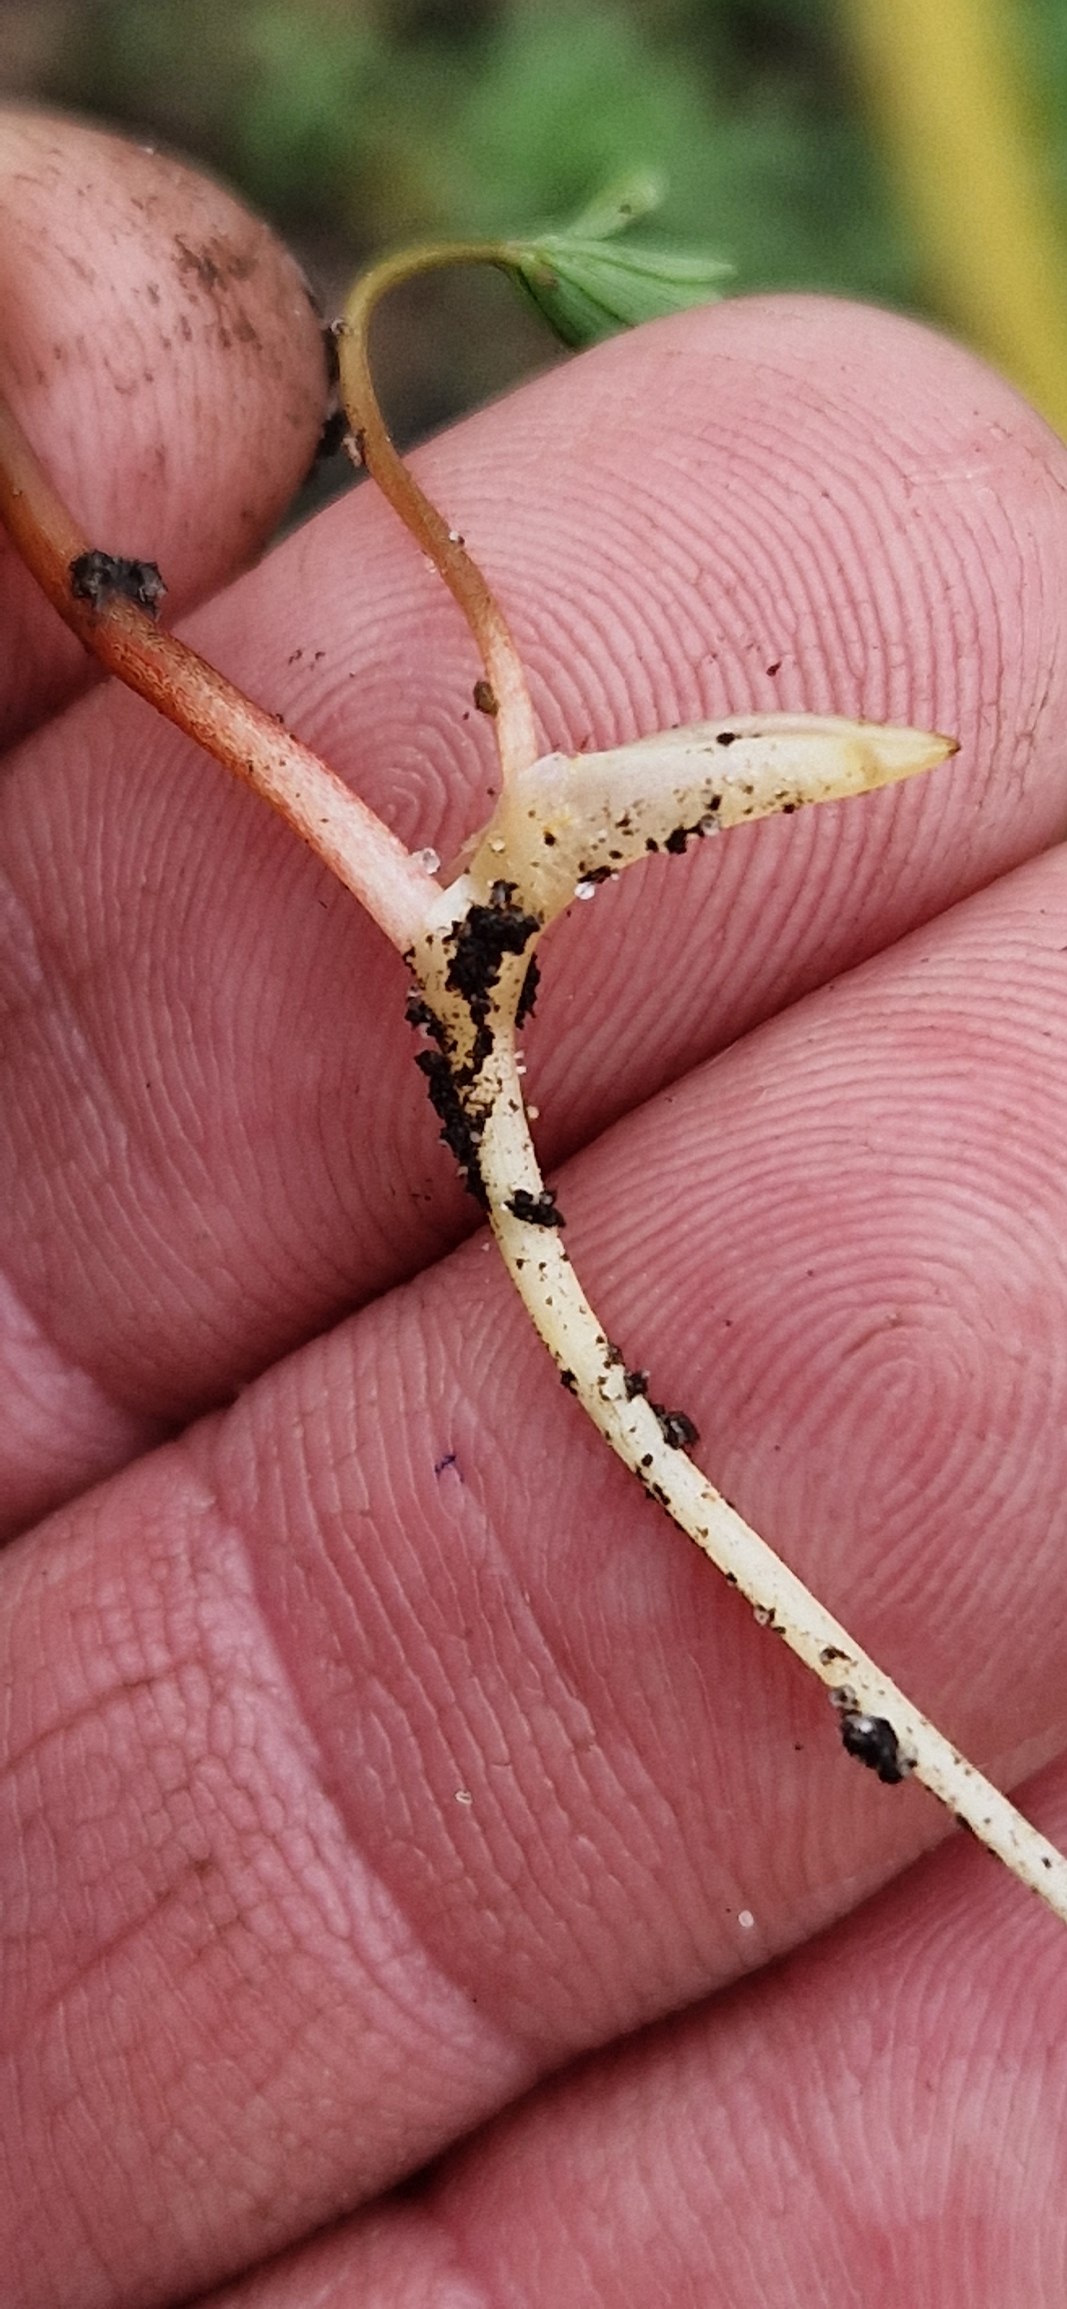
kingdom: Plantae
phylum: Tracheophyta
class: Magnoliopsida
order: Ranunculales
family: Papaveraceae
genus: Corydalis
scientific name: Corydalis intermedia
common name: Liden lærkespore
